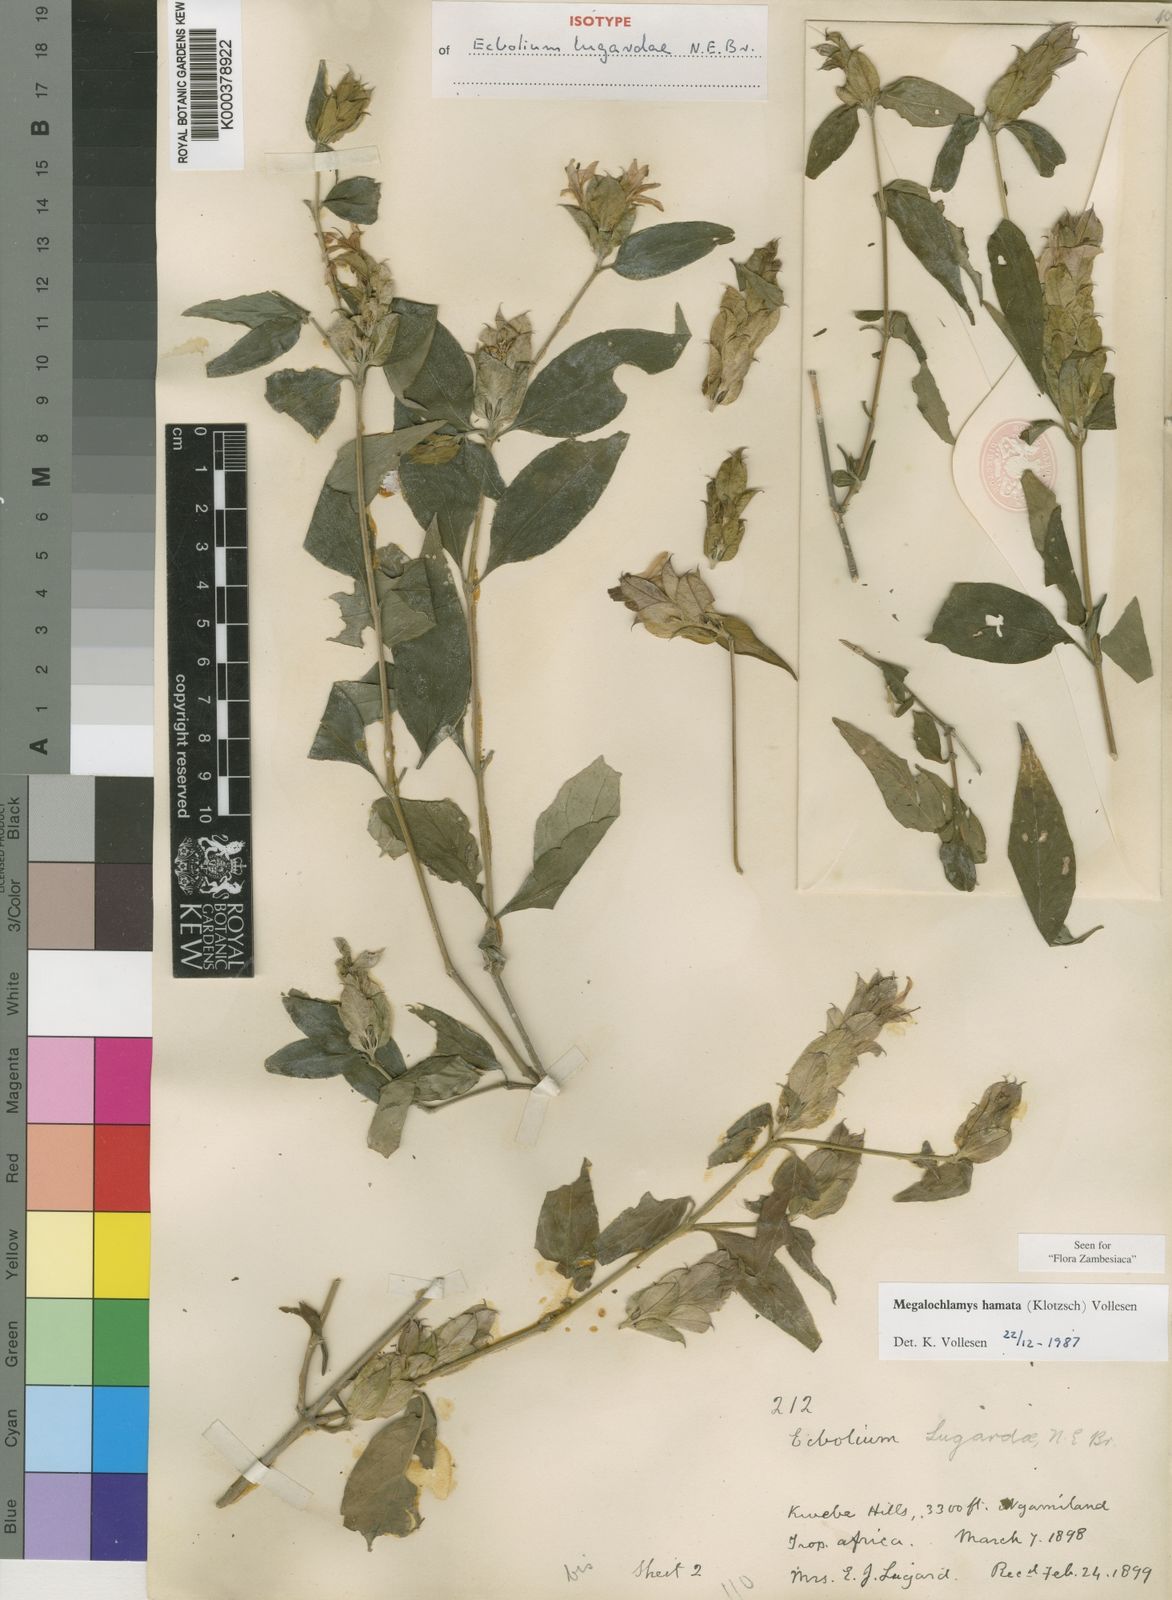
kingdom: Plantae
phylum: Tracheophyta
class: Magnoliopsida
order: Lamiales
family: Acanthaceae
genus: Megalochlamys
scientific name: Megalochlamys hamata
